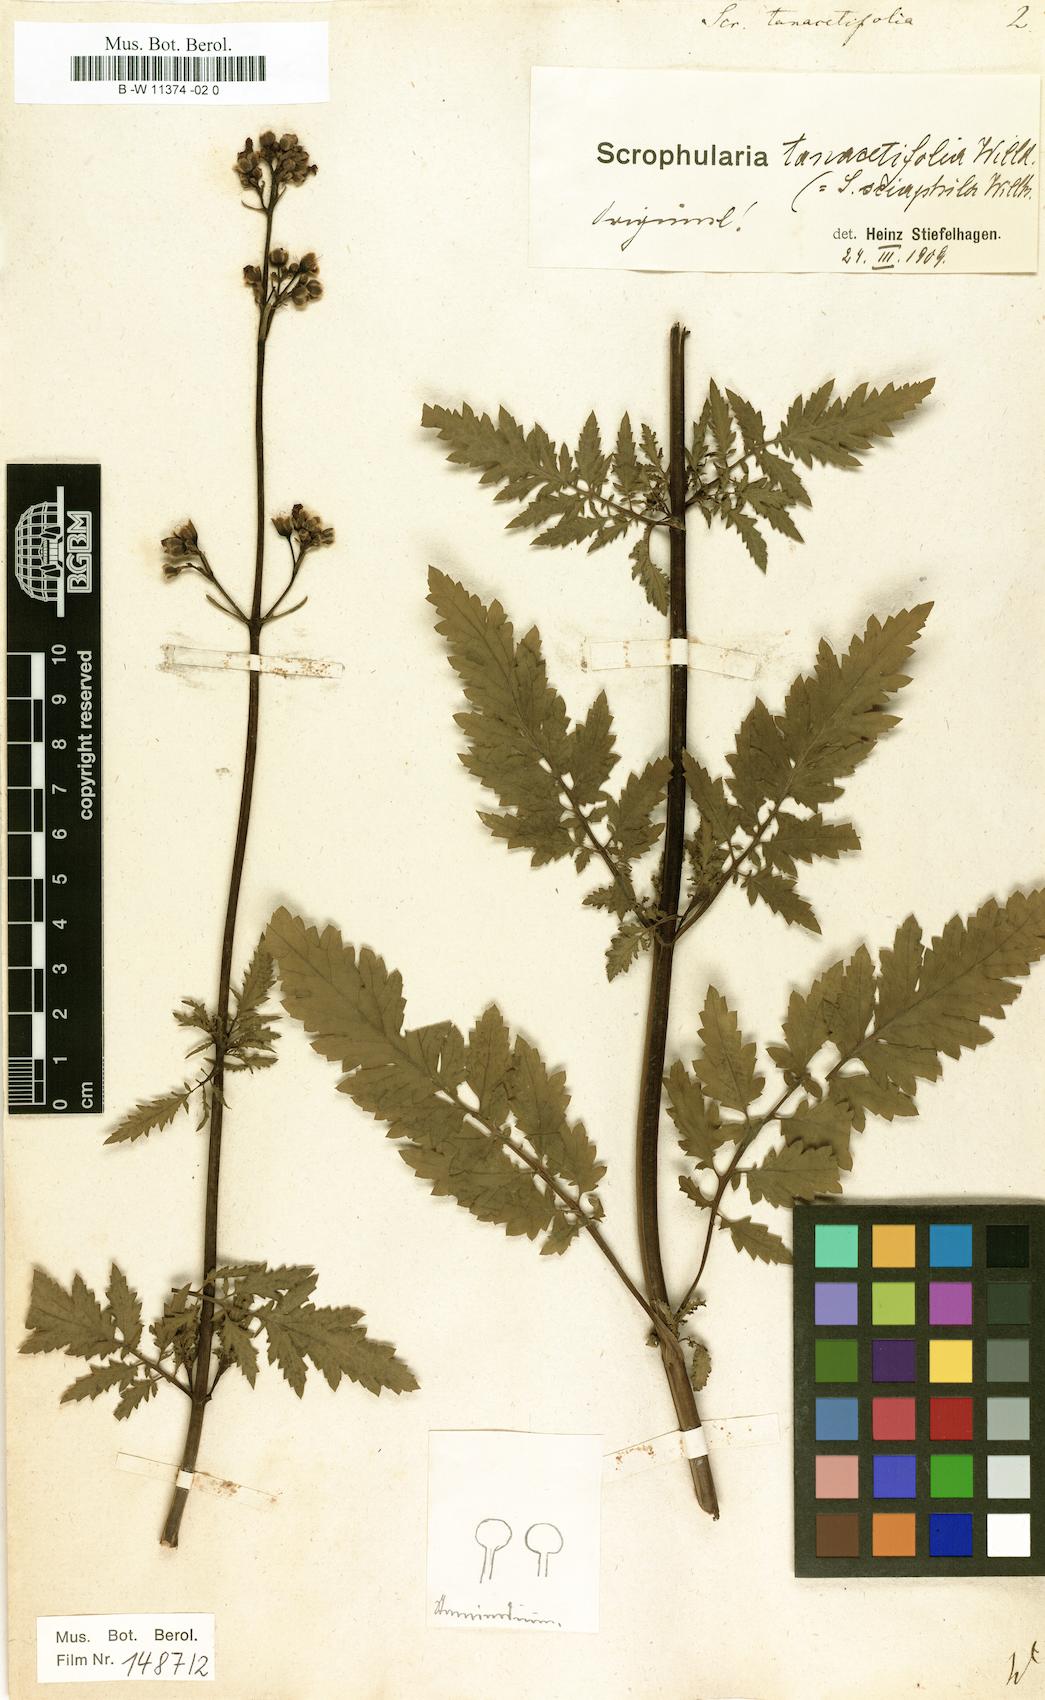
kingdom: Plantae
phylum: Tracheophyta
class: Magnoliopsida
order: Lamiales
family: Scrophulariaceae
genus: Scrophularia
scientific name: Scrophularia tanacetifolia
